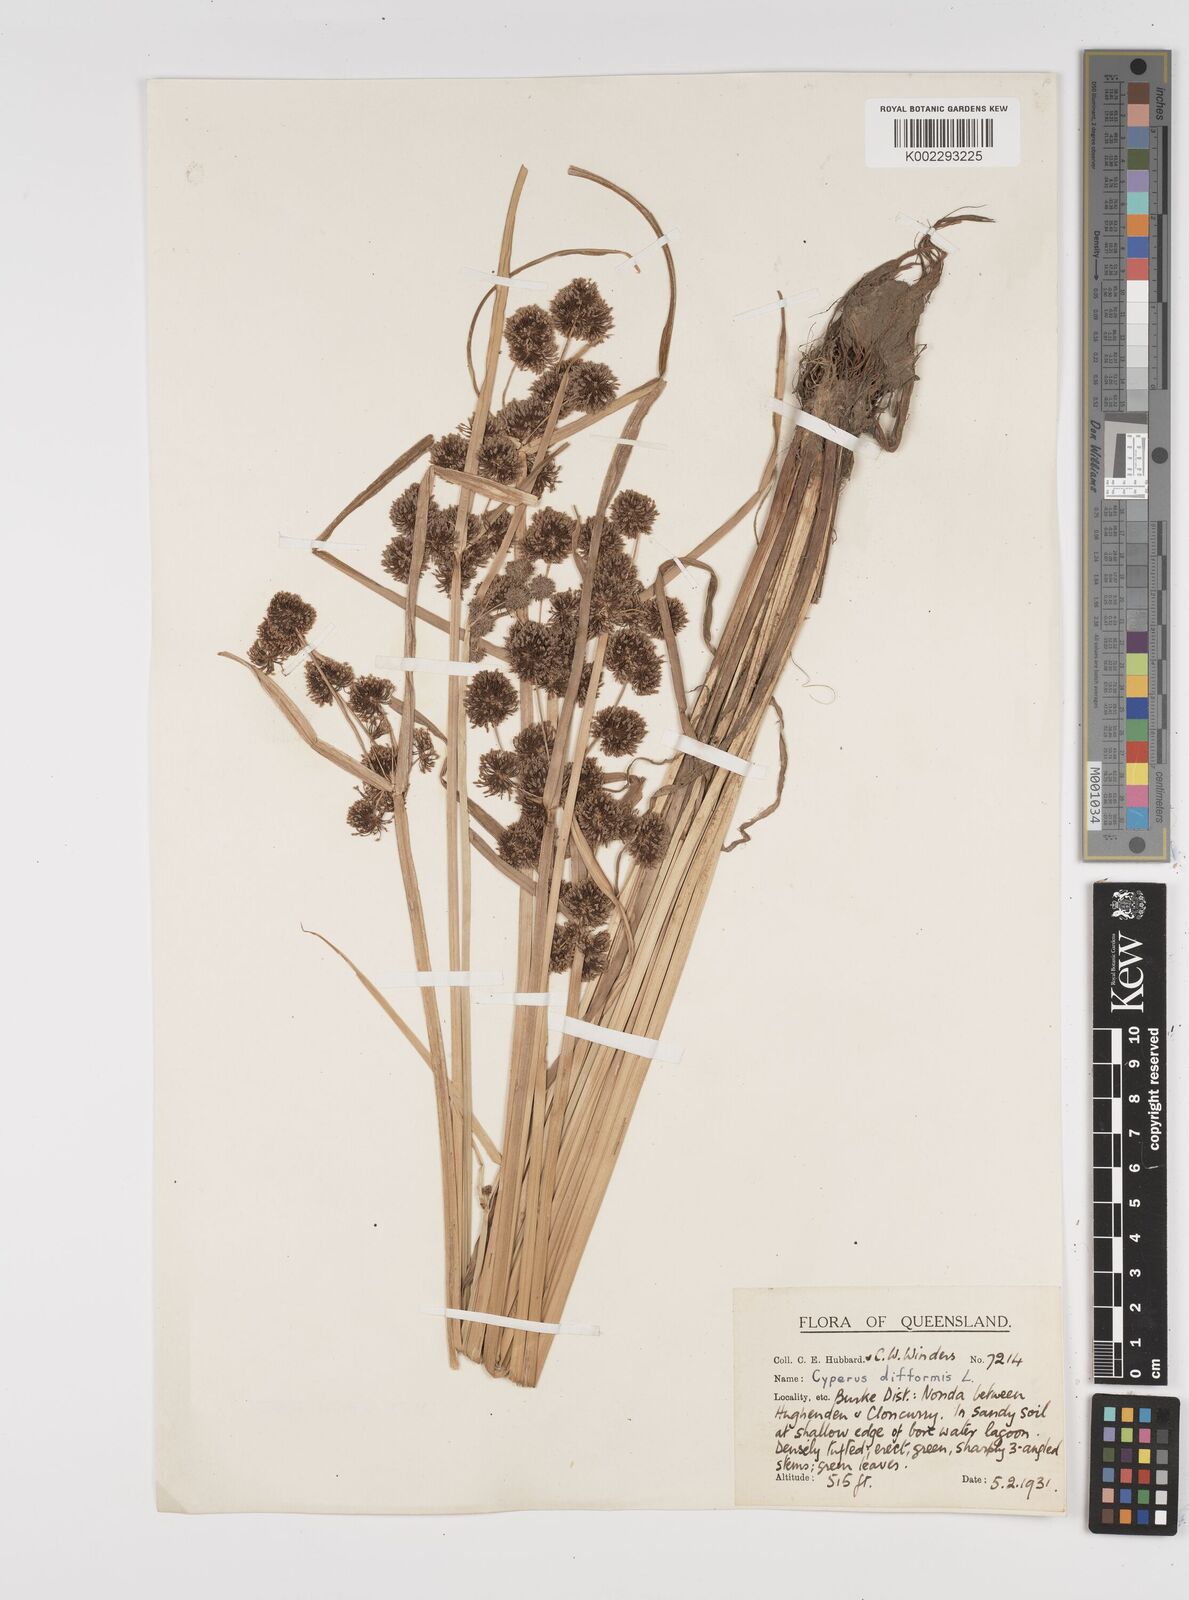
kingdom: Plantae
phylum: Tracheophyta
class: Liliopsida
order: Poales
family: Cyperaceae
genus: Cyperus
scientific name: Cyperus difformis
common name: Variable flatsedge
